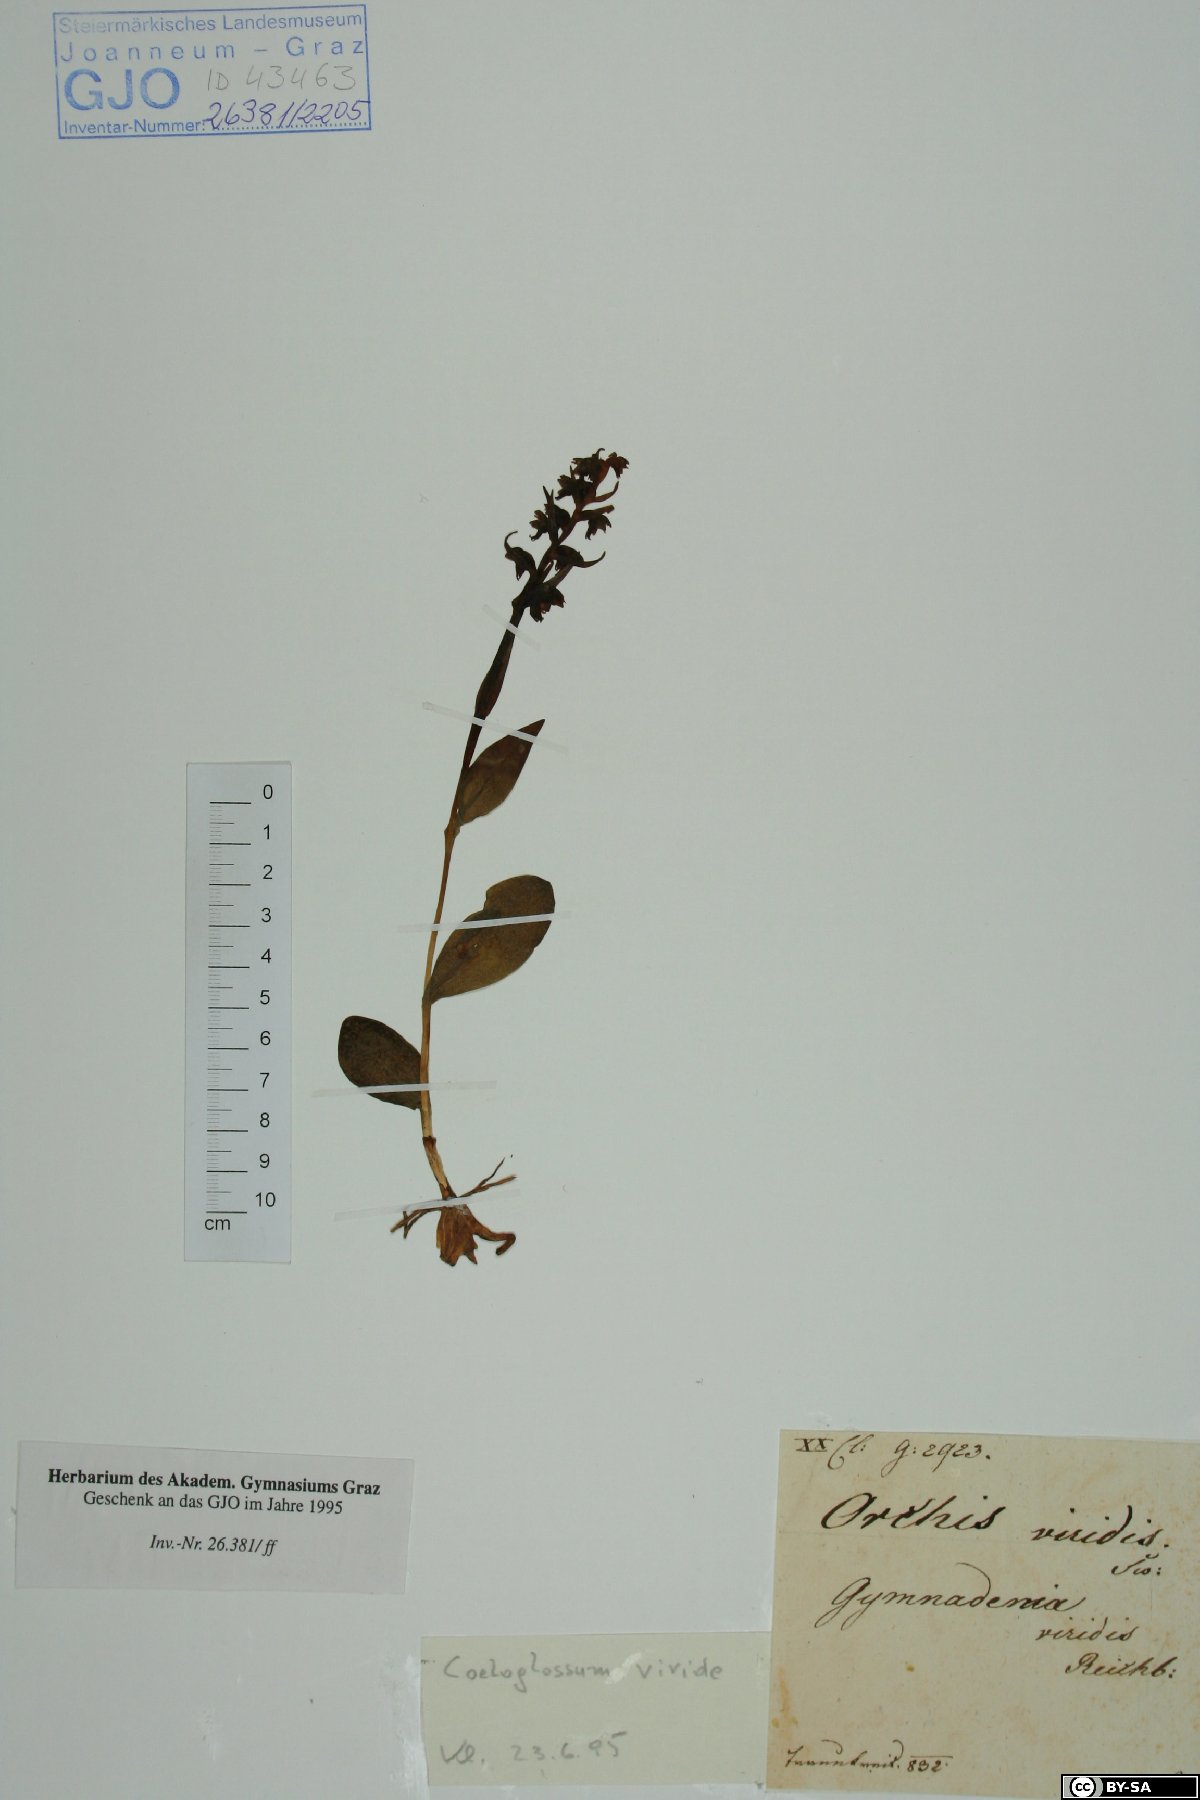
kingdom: Plantae
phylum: Tracheophyta
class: Liliopsida
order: Asparagales
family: Orchidaceae
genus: Dactylorhiza
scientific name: Dactylorhiza viridis
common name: Longbract frog orchid
